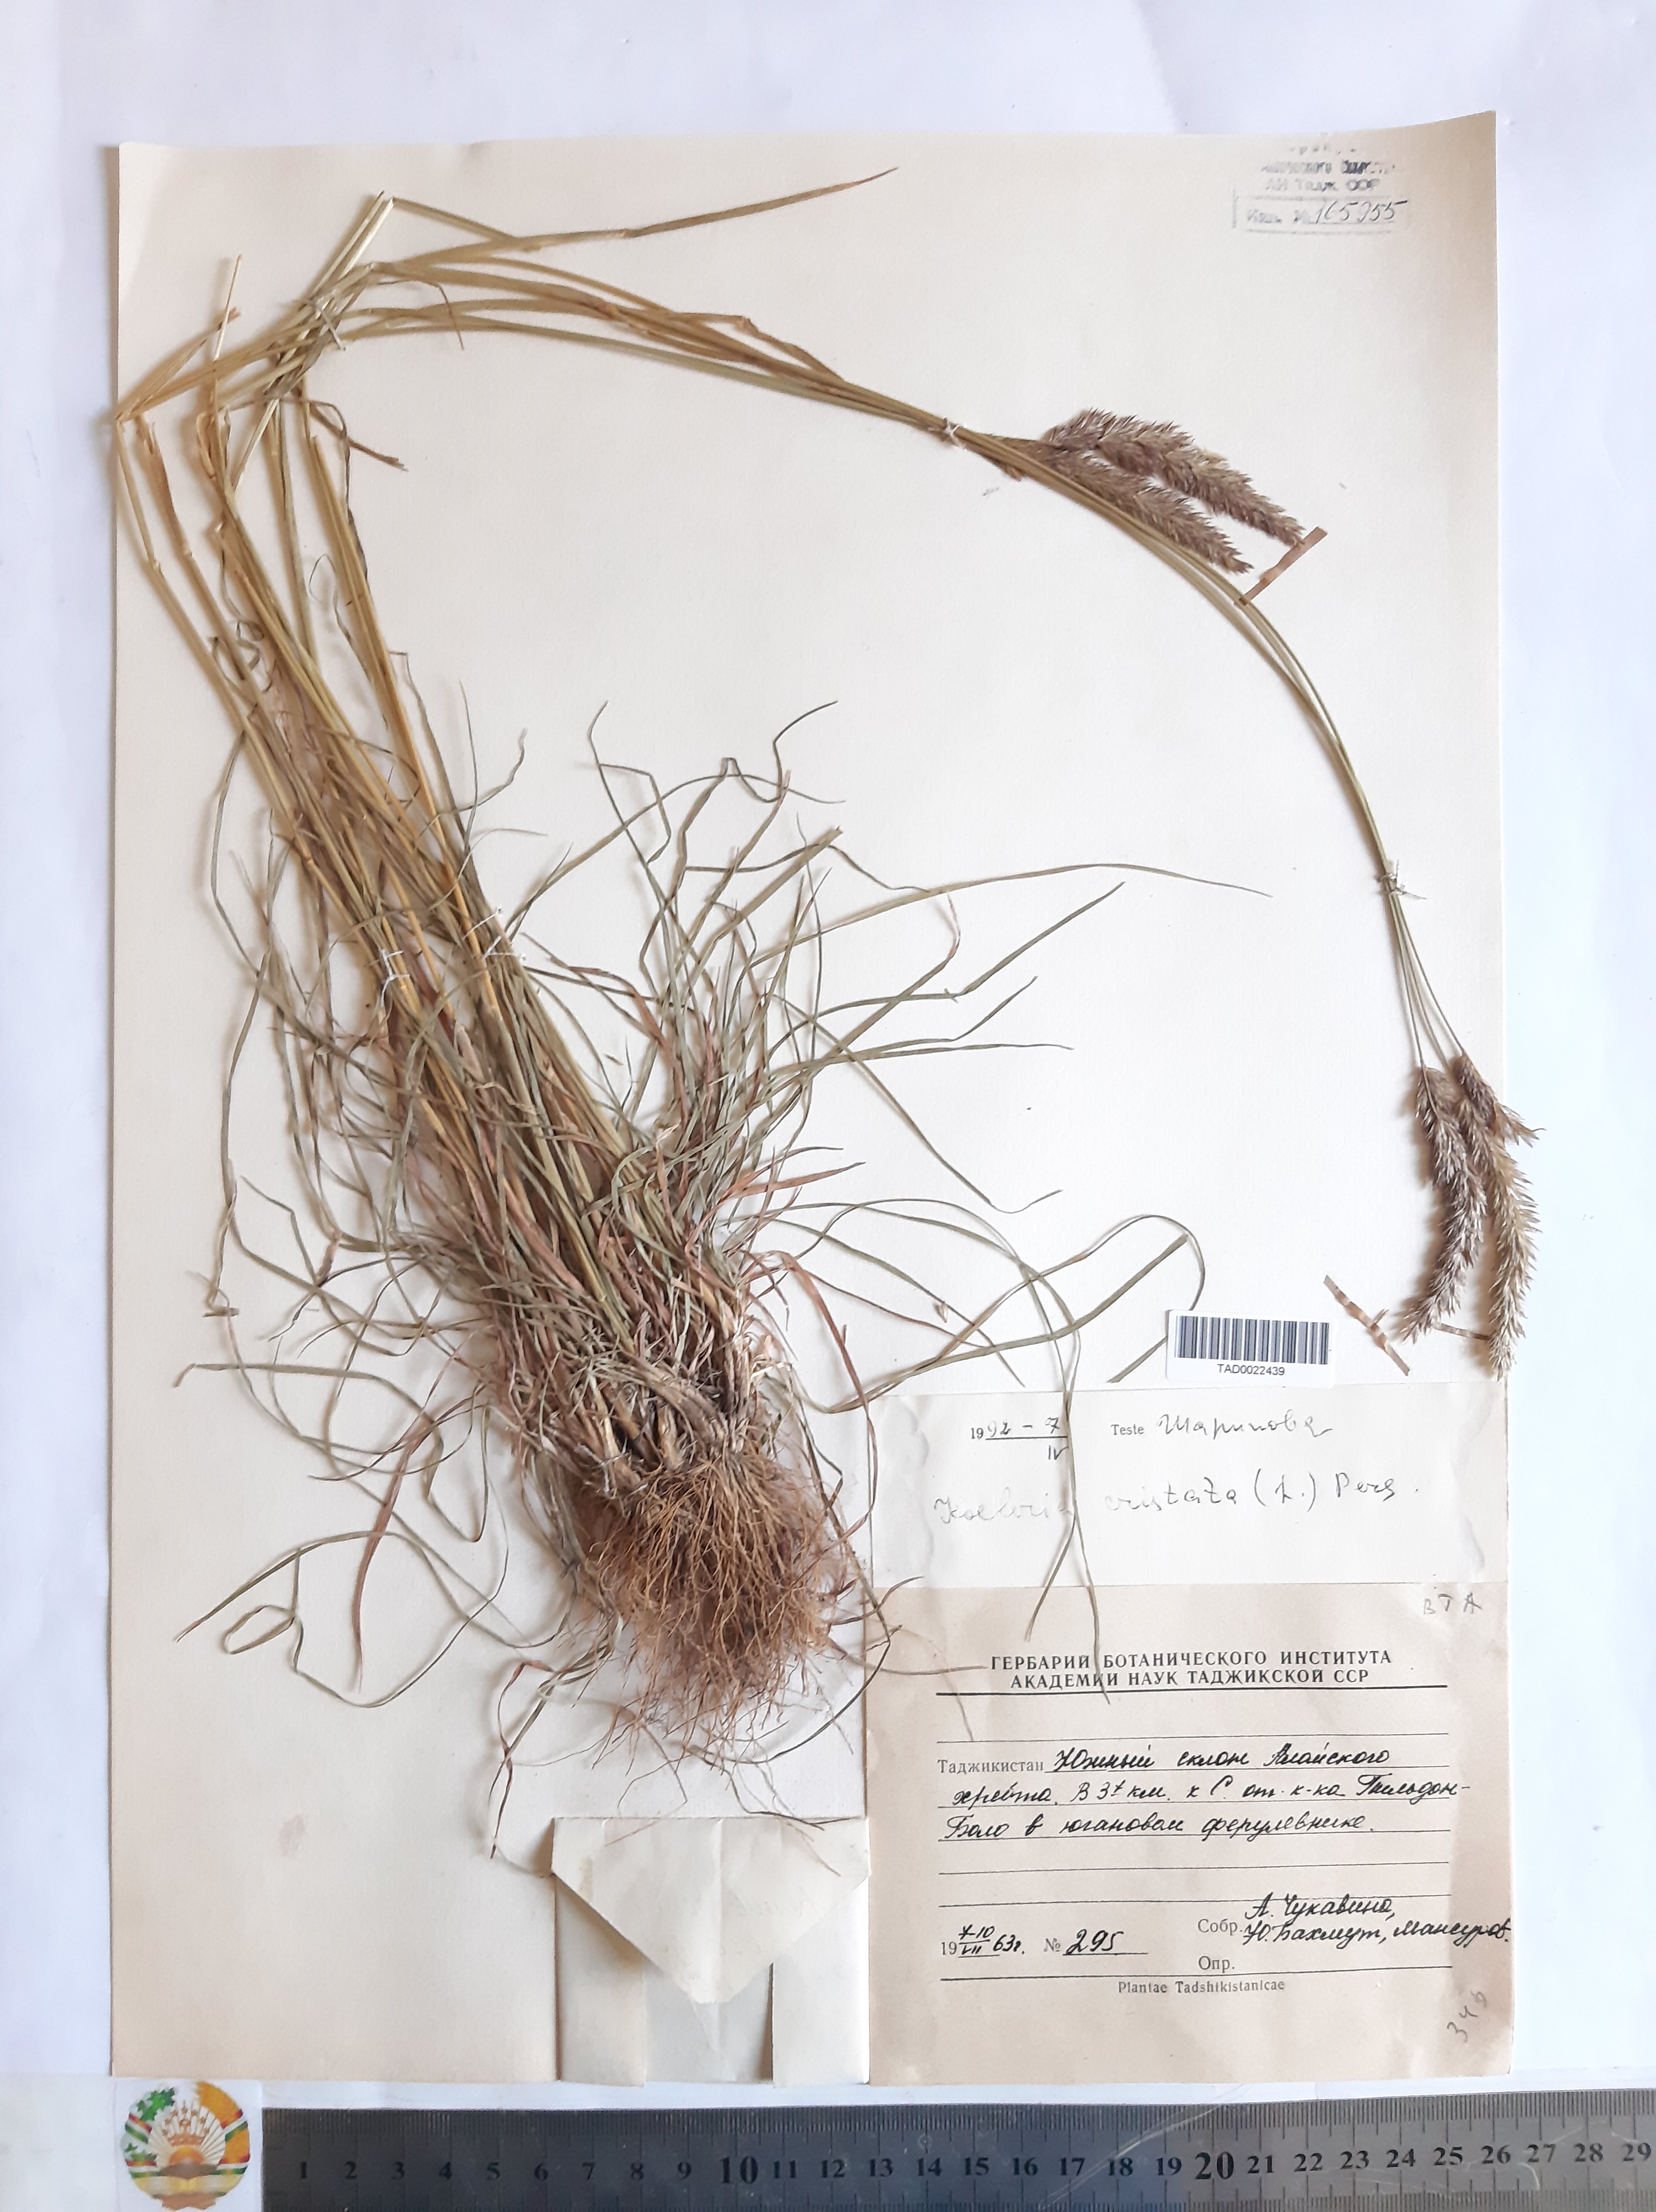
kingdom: Plantae
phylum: Tracheophyta
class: Liliopsida
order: Poales
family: Poaceae
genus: Koeleria
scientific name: Koeleria pyramidata
